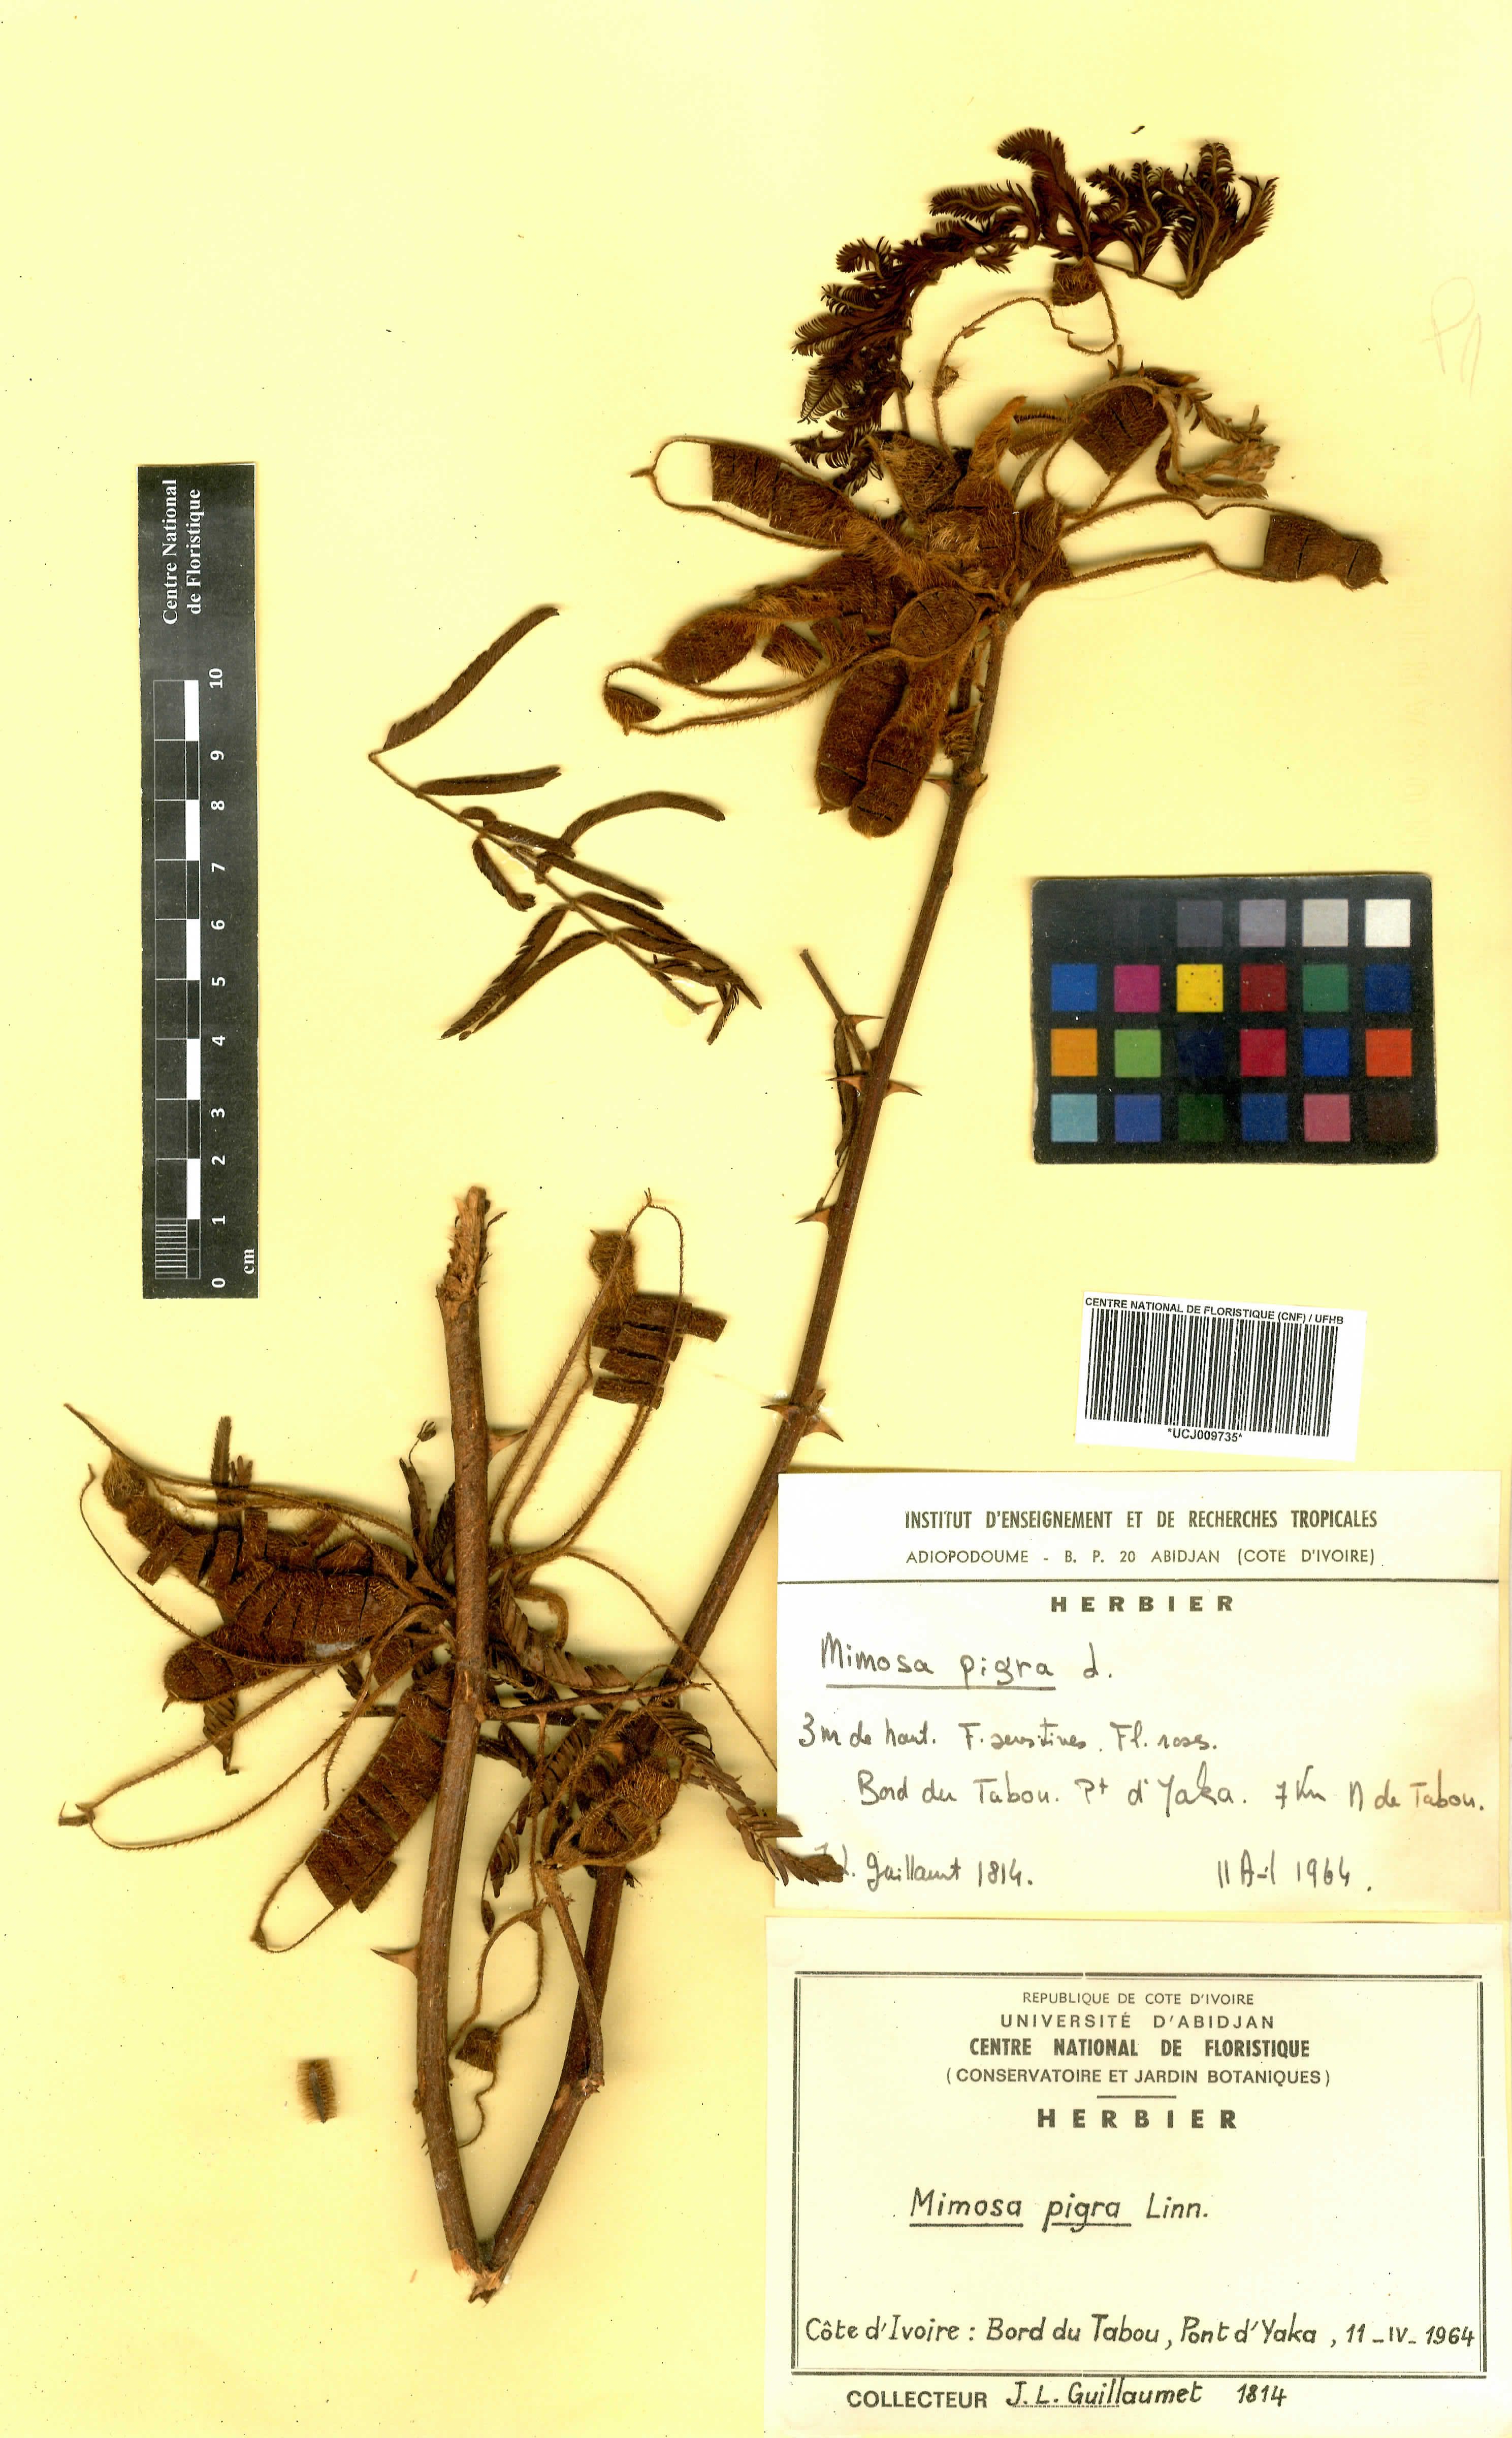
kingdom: Plantae
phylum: Tracheophyta
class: Magnoliopsida
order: Fabales
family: Fabaceae
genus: Mimosa
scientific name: Mimosa pigra
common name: Black mimosa
